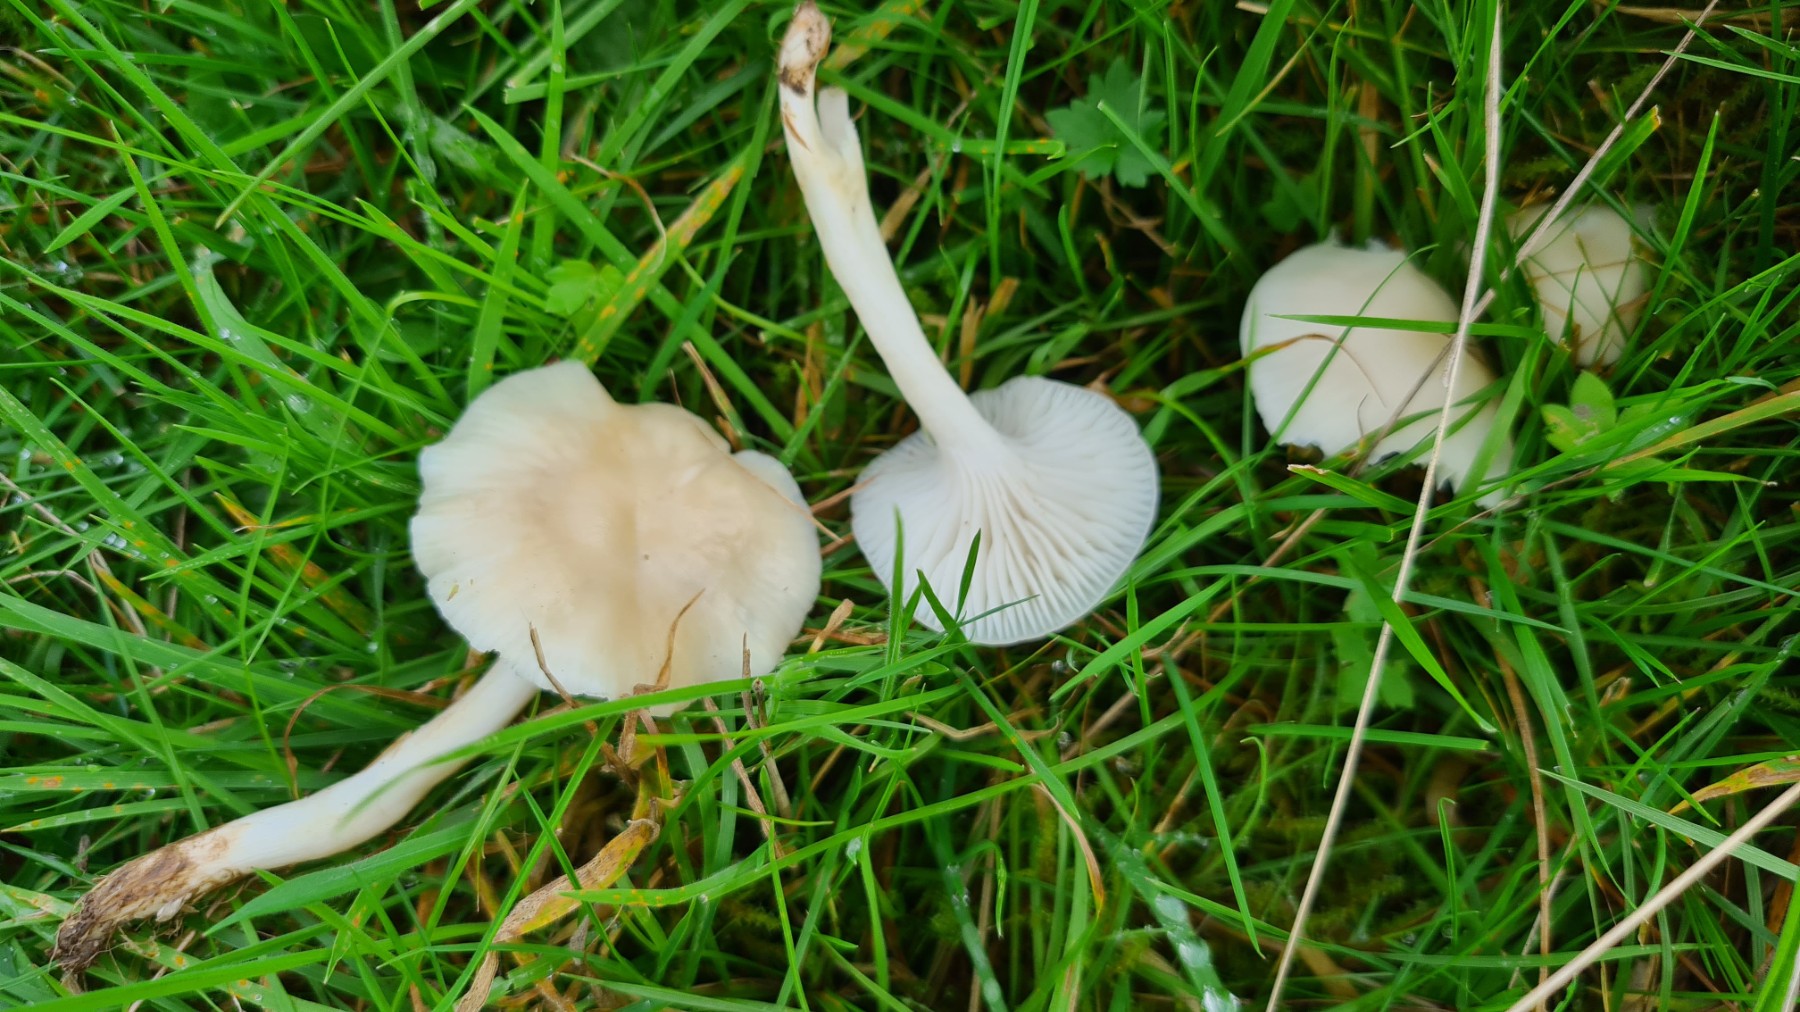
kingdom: Fungi
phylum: Basidiomycota
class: Agaricomycetes
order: Agaricales
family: Hygrophoraceae
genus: Cuphophyllus
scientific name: Cuphophyllus russocoriaceus
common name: ruslæder-vokshat
